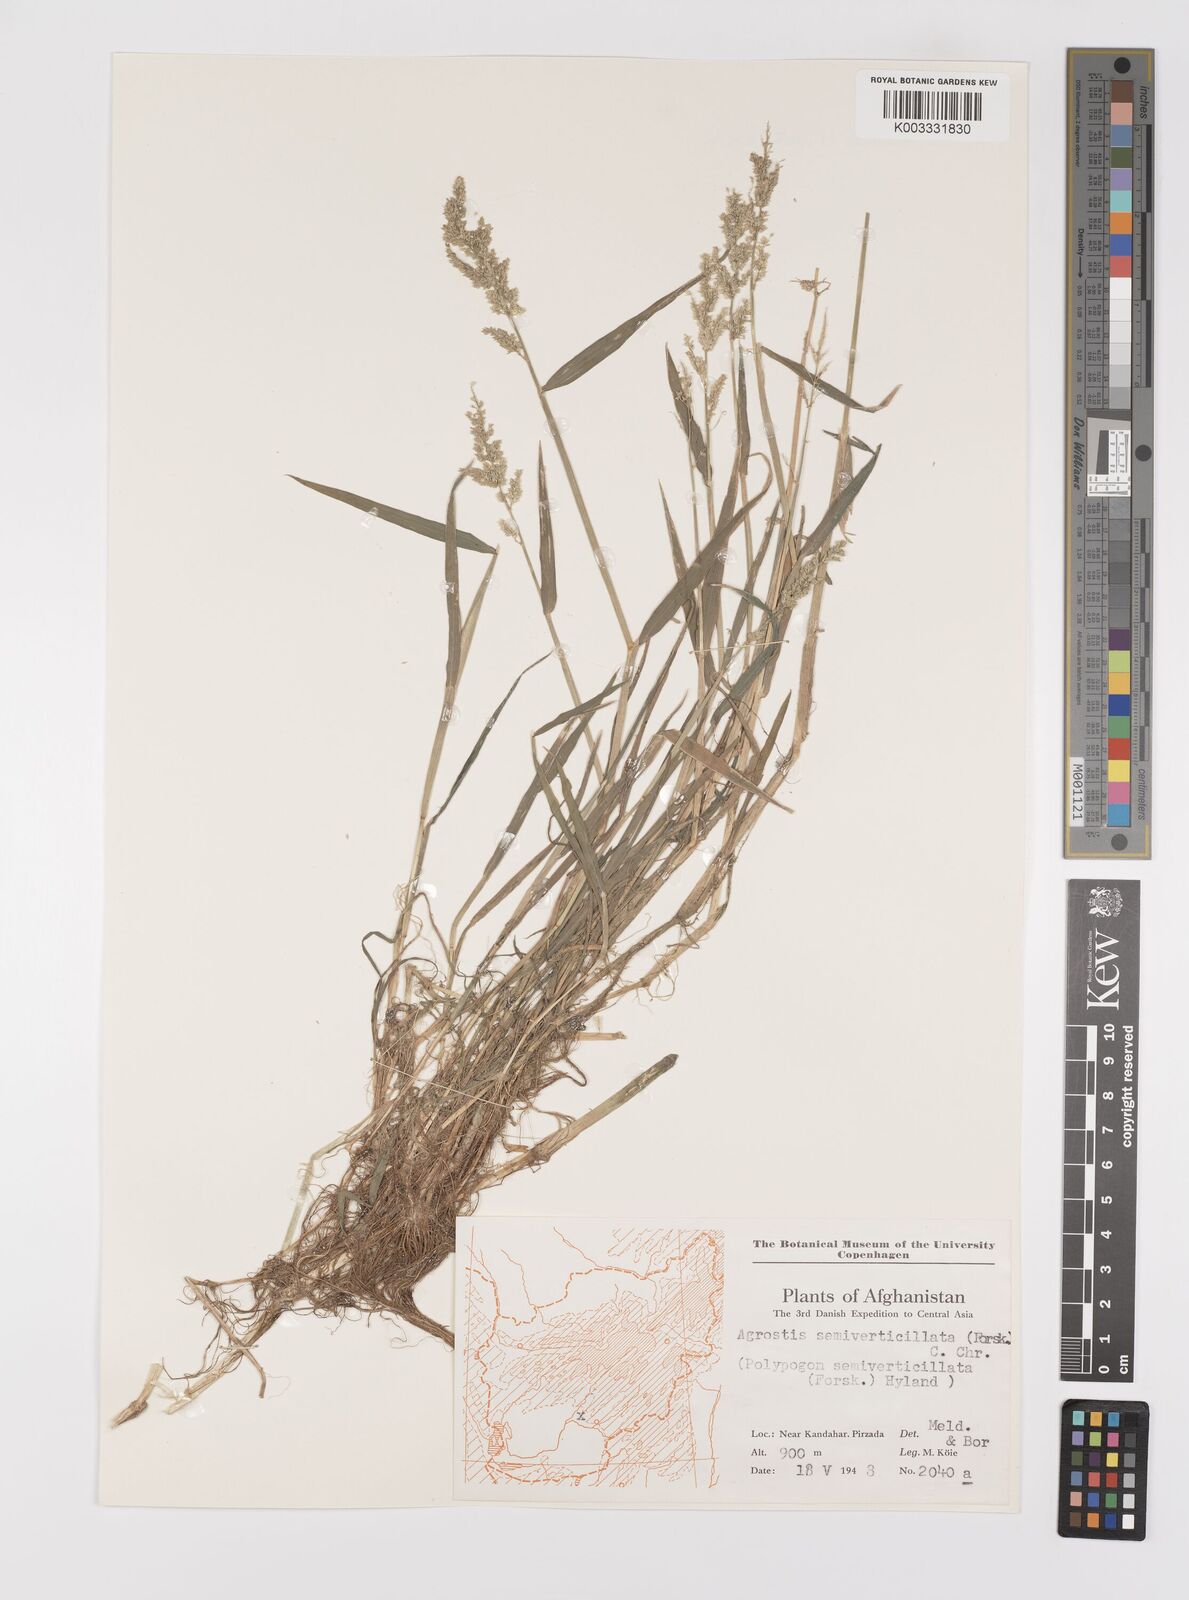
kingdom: Plantae
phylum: Tracheophyta
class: Liliopsida
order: Poales
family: Poaceae
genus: Polypogon
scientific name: Polypogon viridis
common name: Water bent
